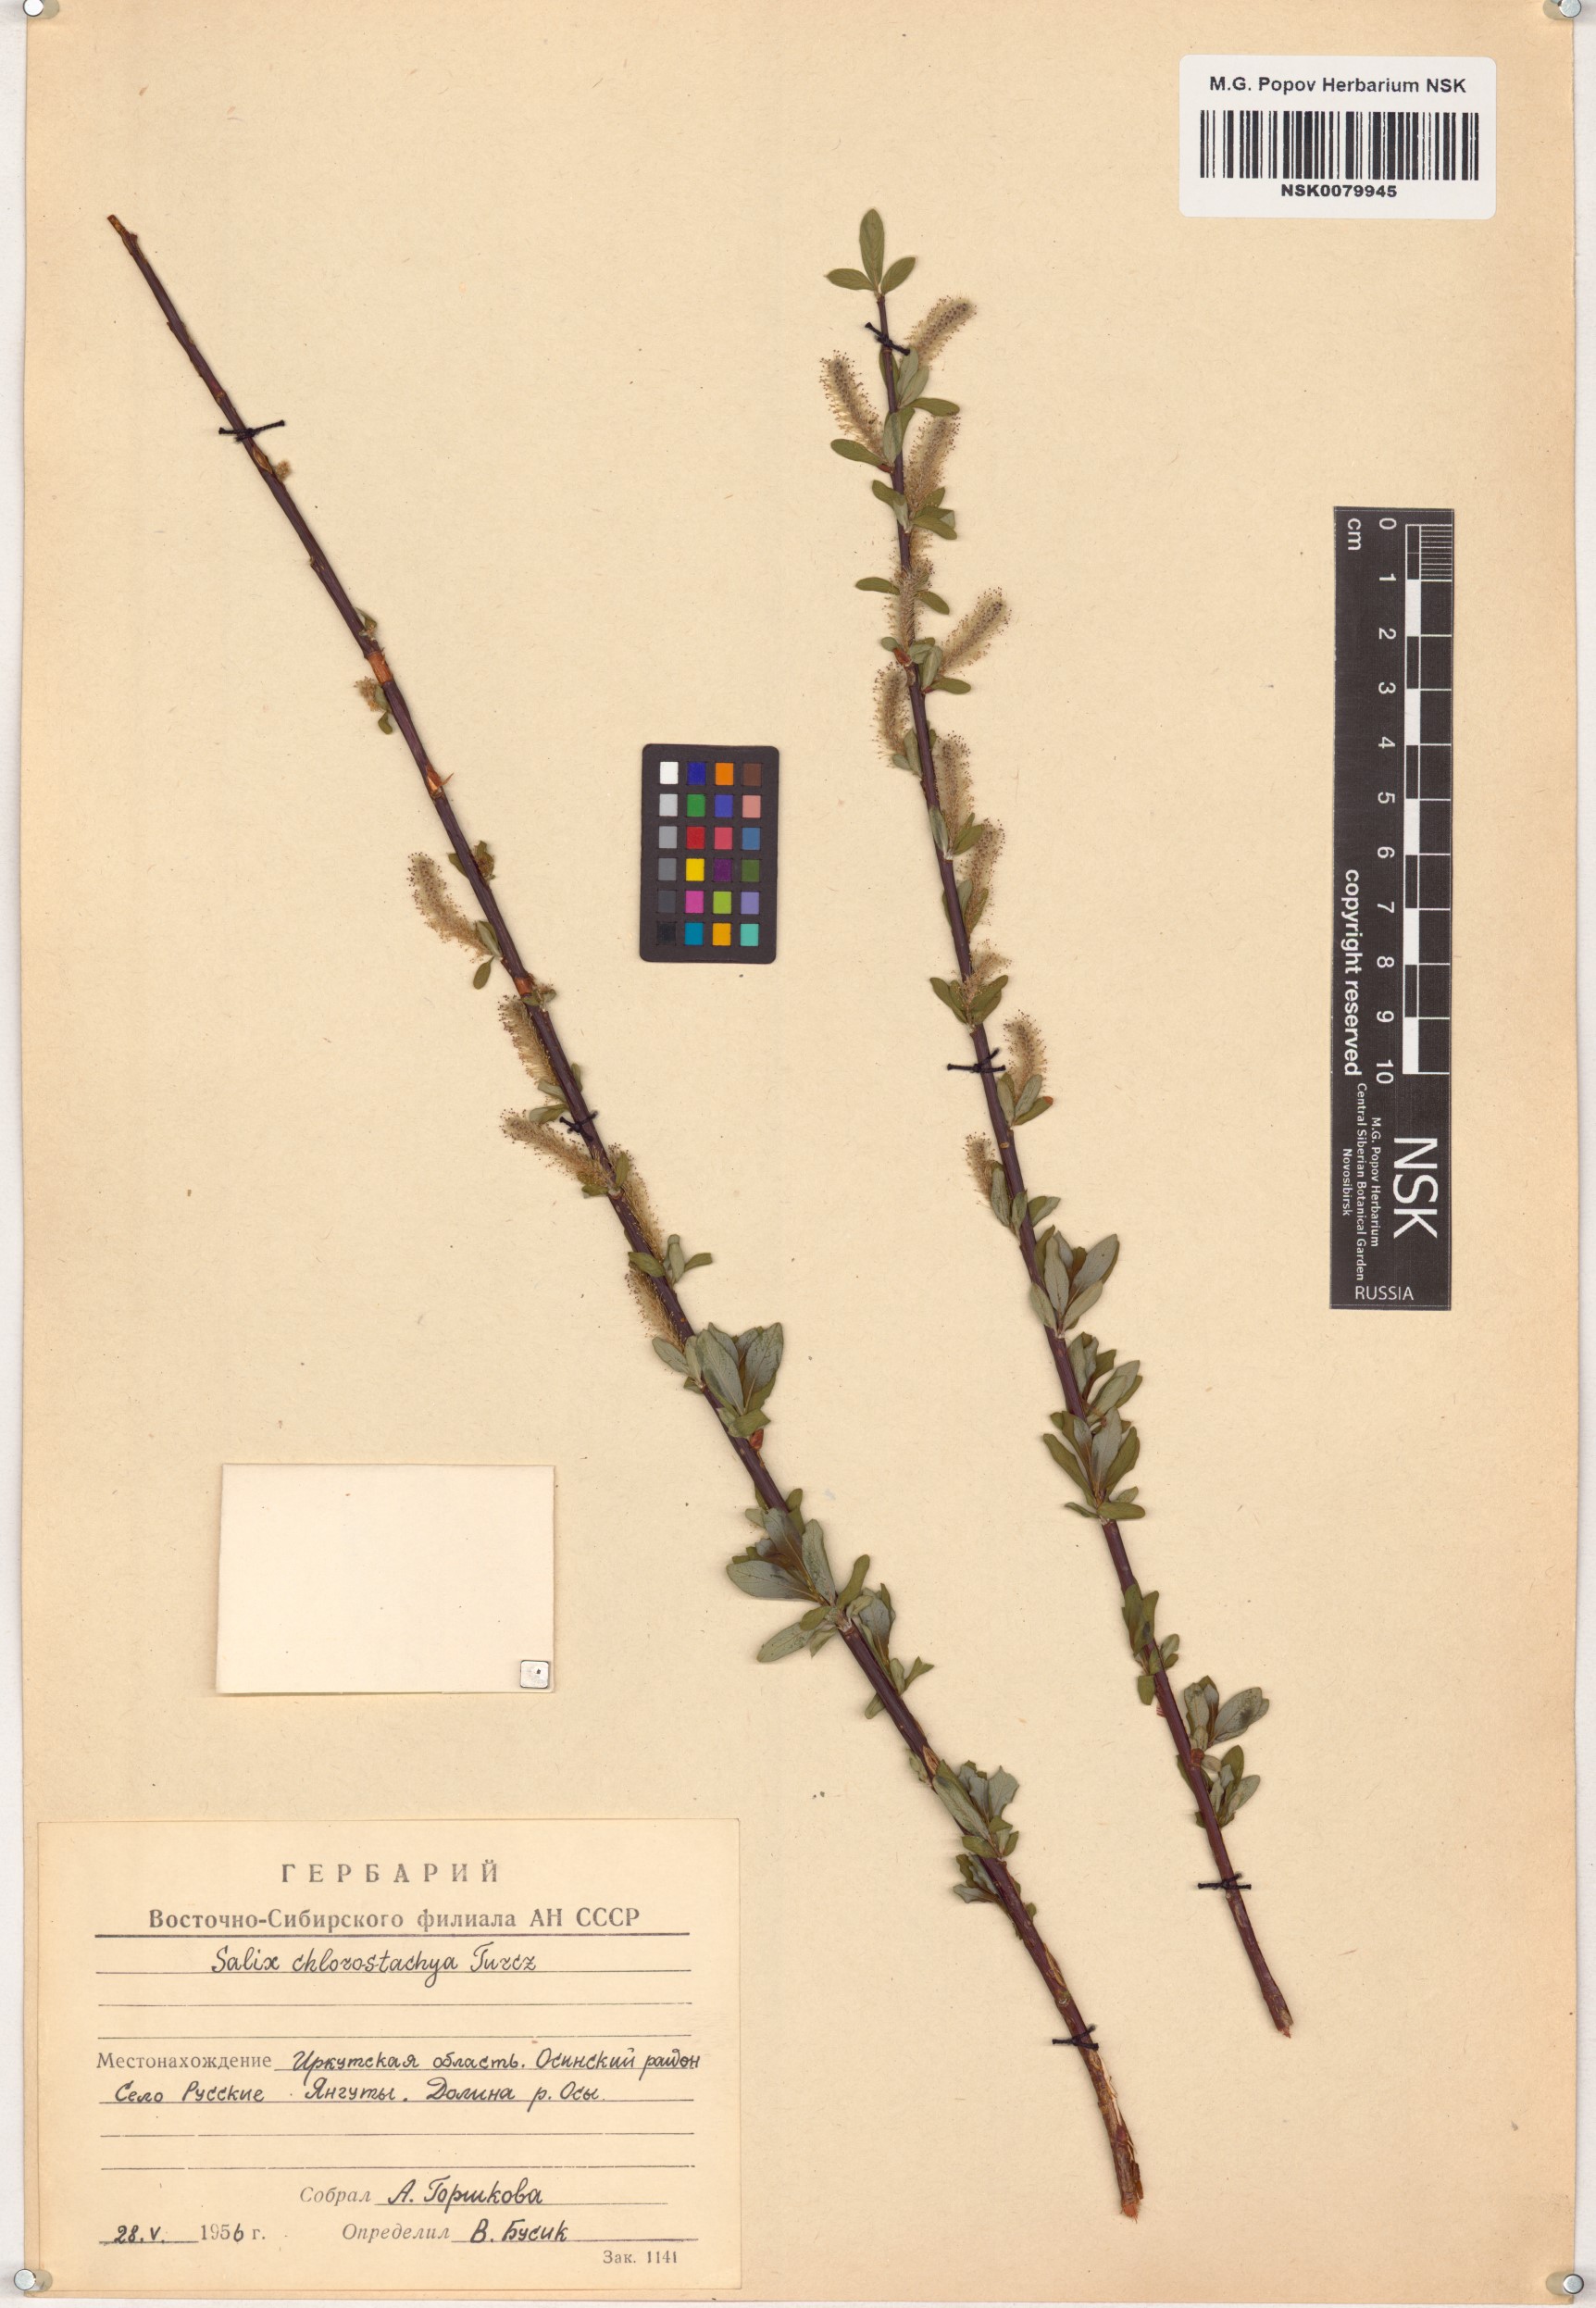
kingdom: Plantae
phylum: Tracheophyta
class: Magnoliopsida
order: Malpighiales
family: Salicaceae
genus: Salix
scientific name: Salix rhamnifolia
